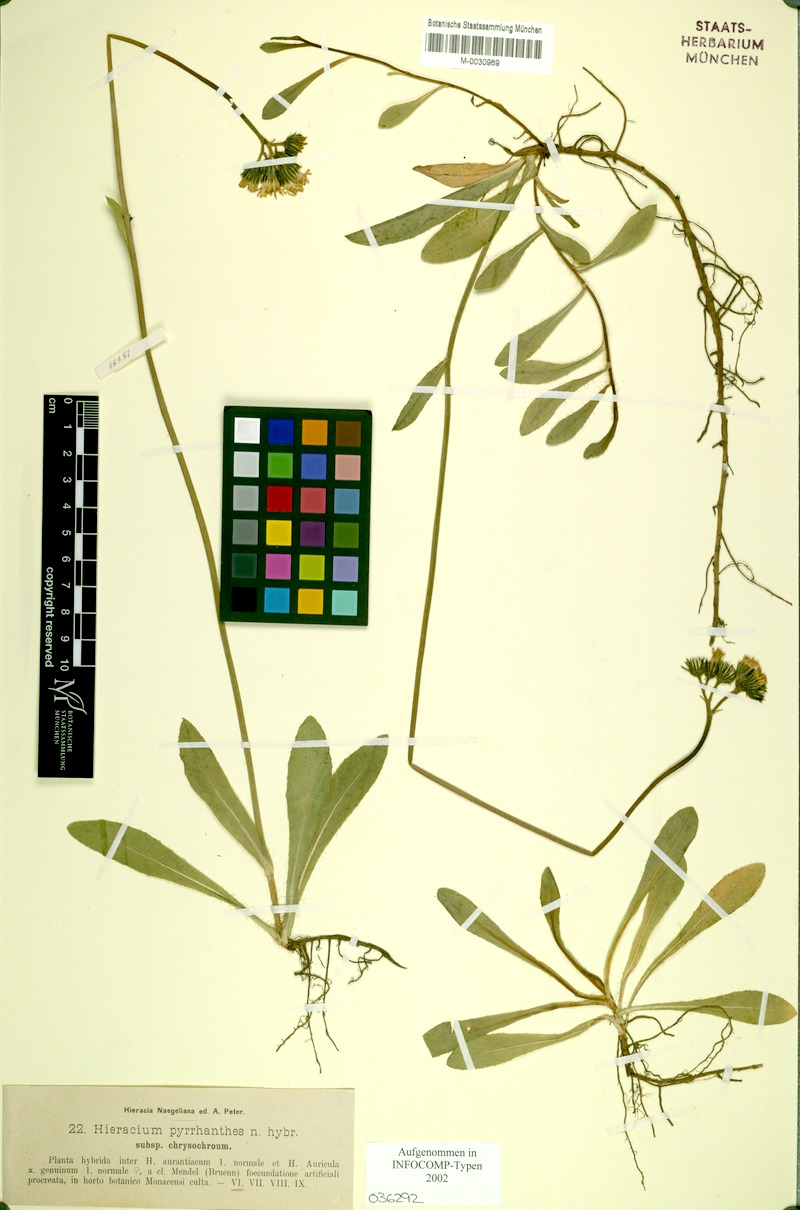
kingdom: Plantae
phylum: Tracheophyta
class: Magnoliopsida
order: Asterales
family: Asteraceae
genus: Pilosella
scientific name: Pilosella blyttiana
